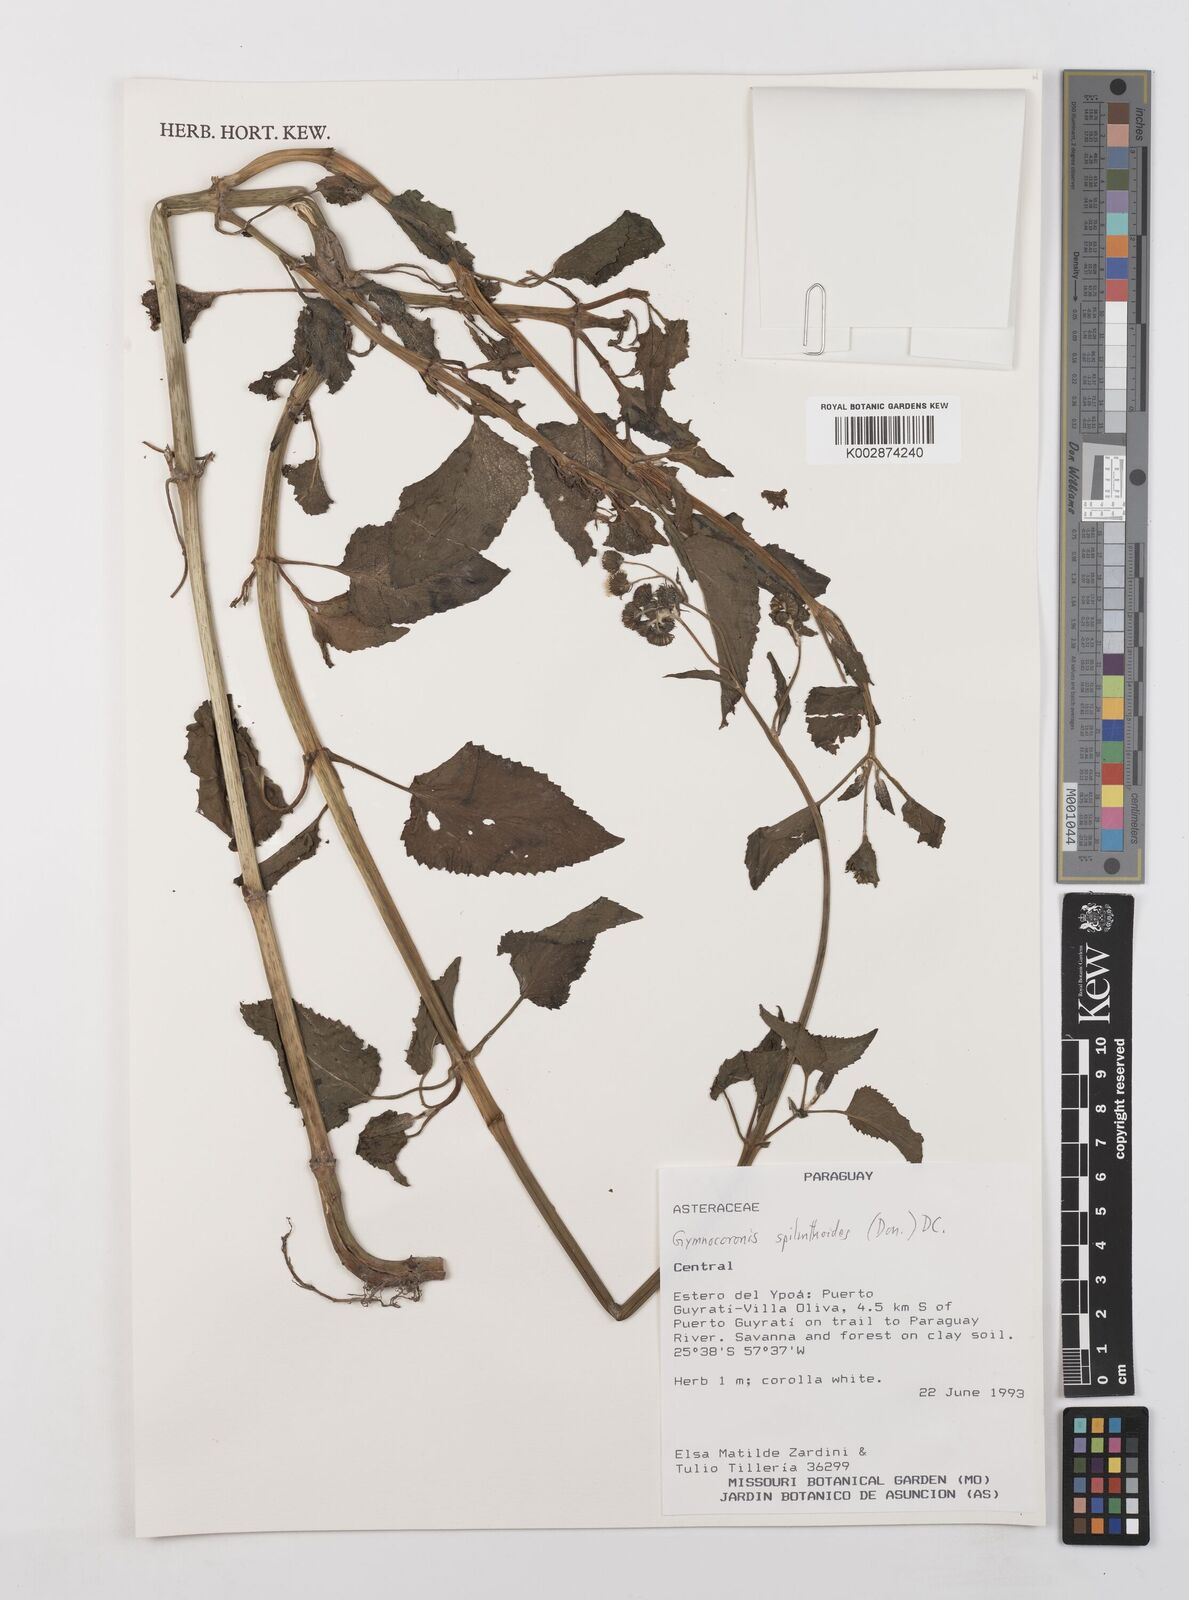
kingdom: Plantae
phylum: Tracheophyta
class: Magnoliopsida
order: Asterales
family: Asteraceae
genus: Gymnocoronis
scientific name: Gymnocoronis spilanthoides
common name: Senegal teaplant
